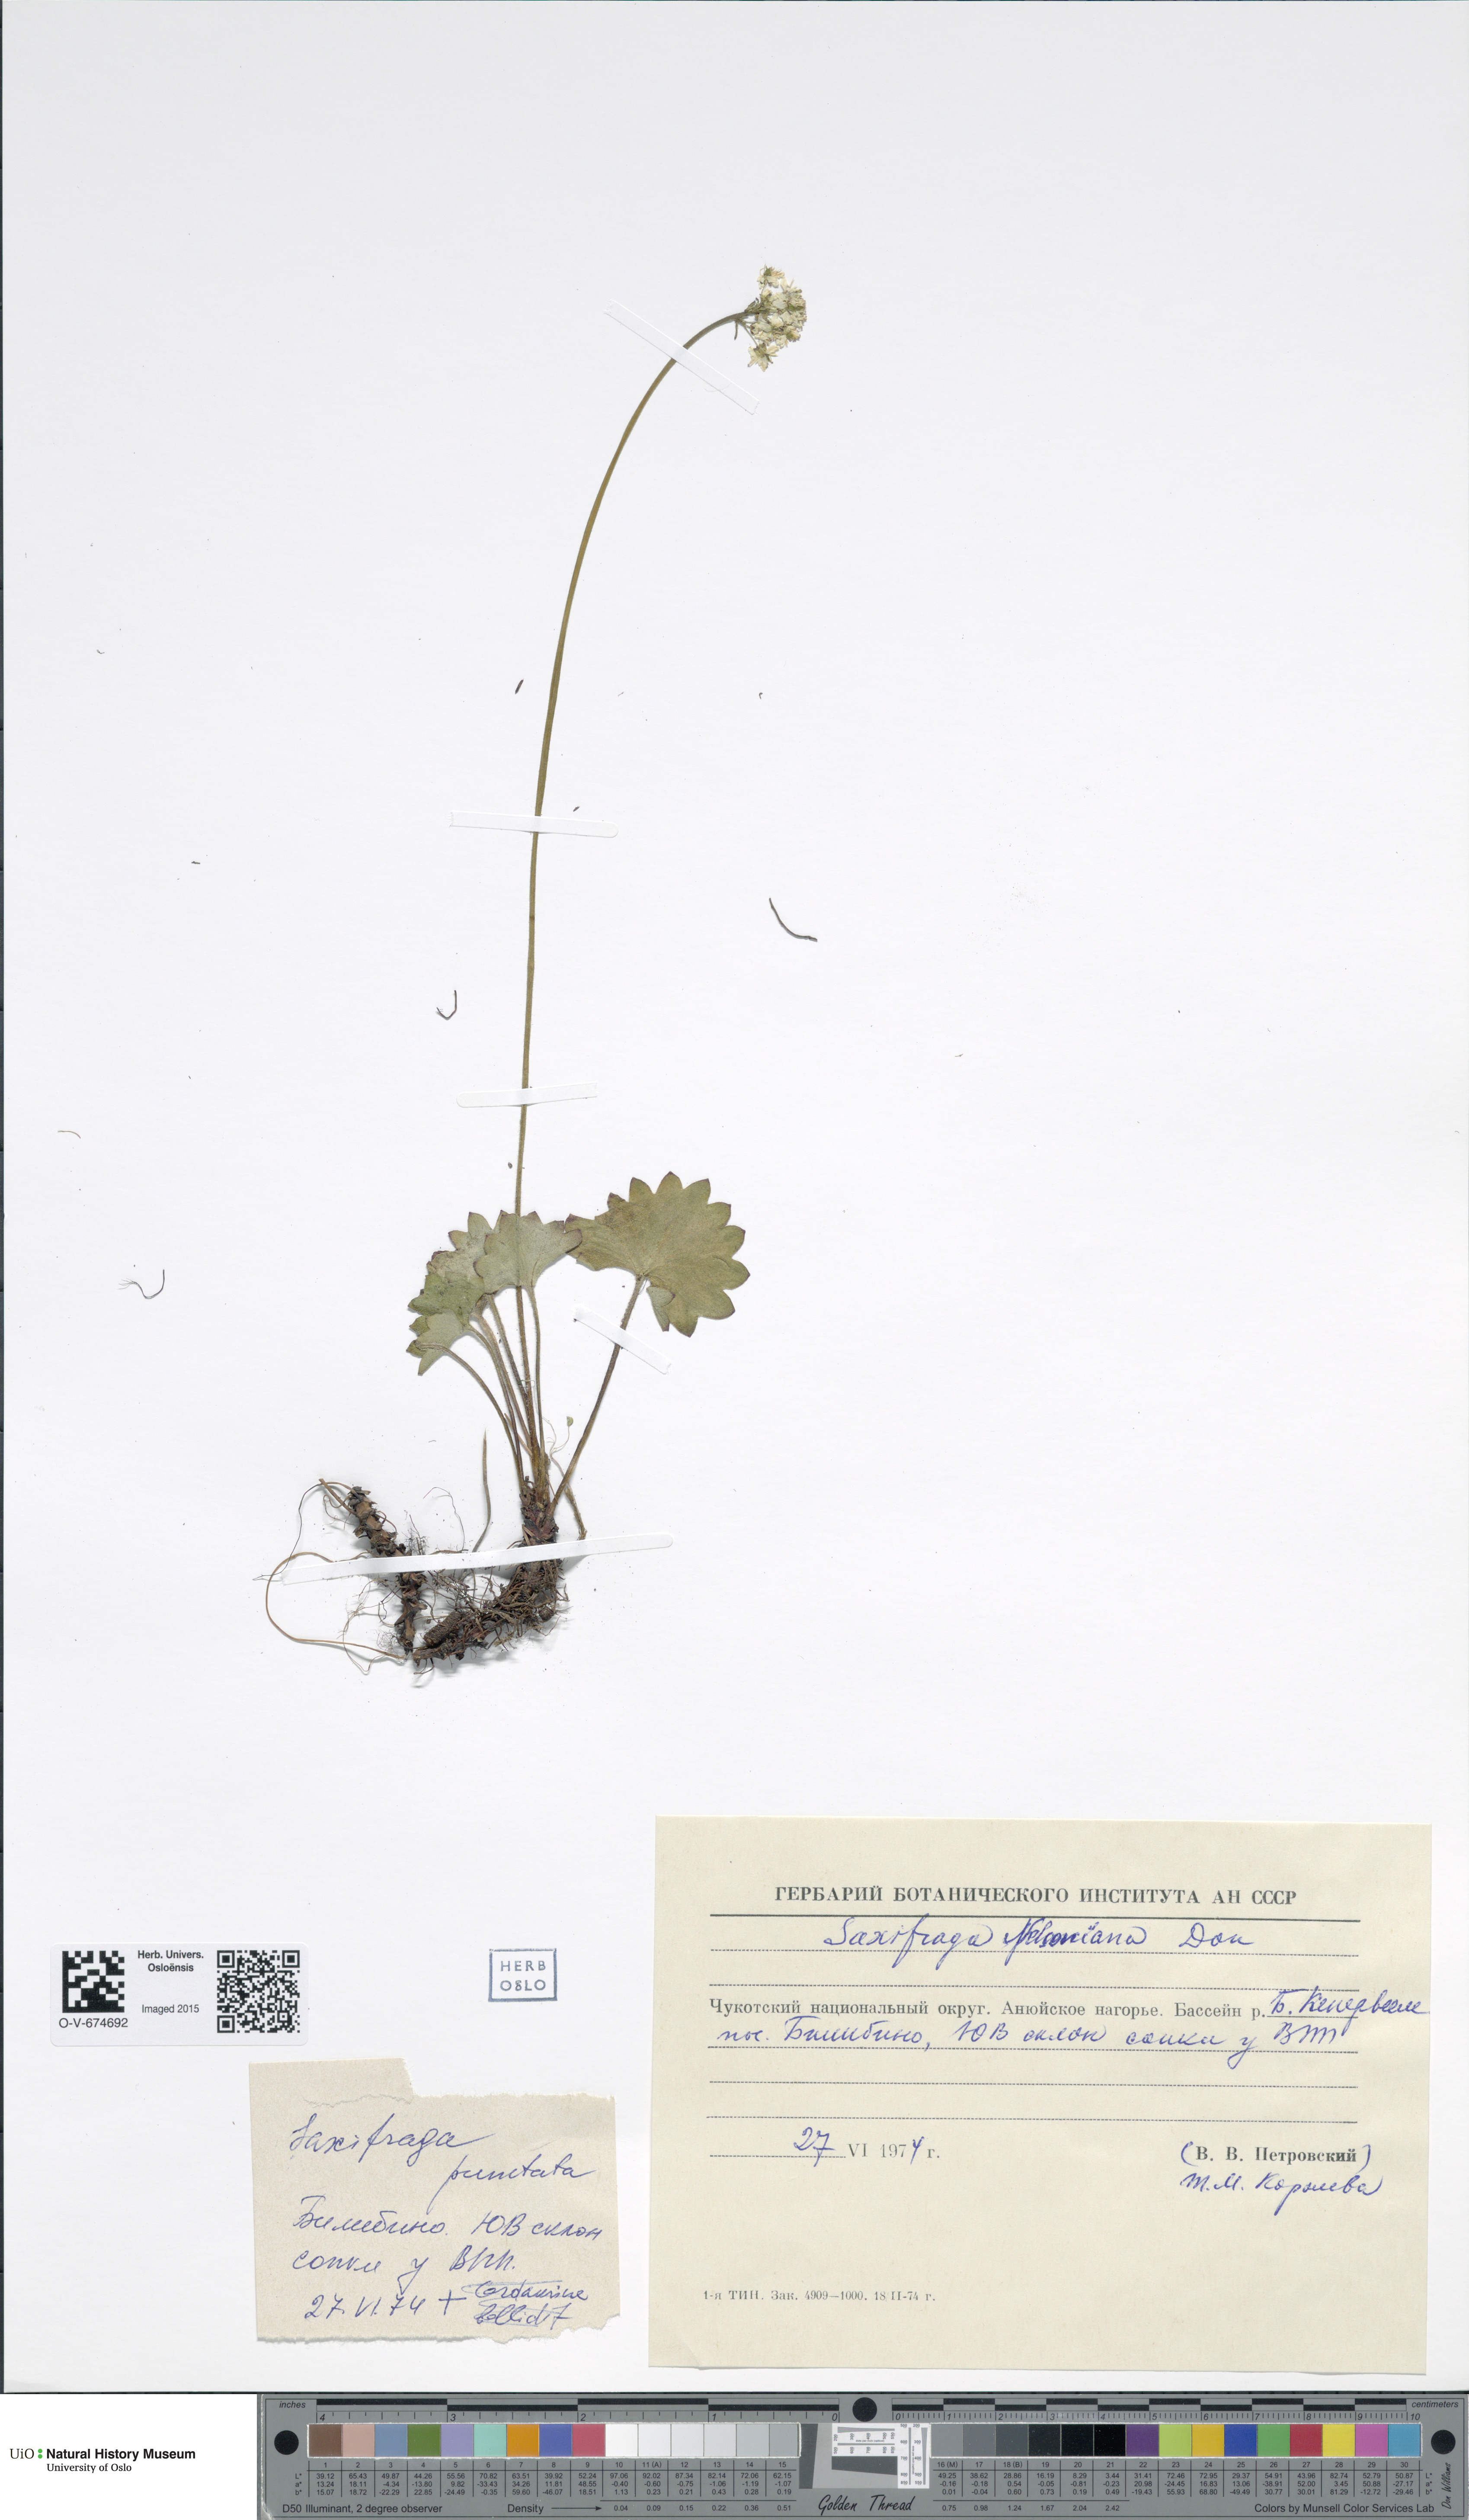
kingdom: Plantae
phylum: Tracheophyta
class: Magnoliopsida
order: Saxifragales
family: Saxifragaceae
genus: Micranthes
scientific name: Micranthes nelsoniana
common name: Nelson's saxifrage
